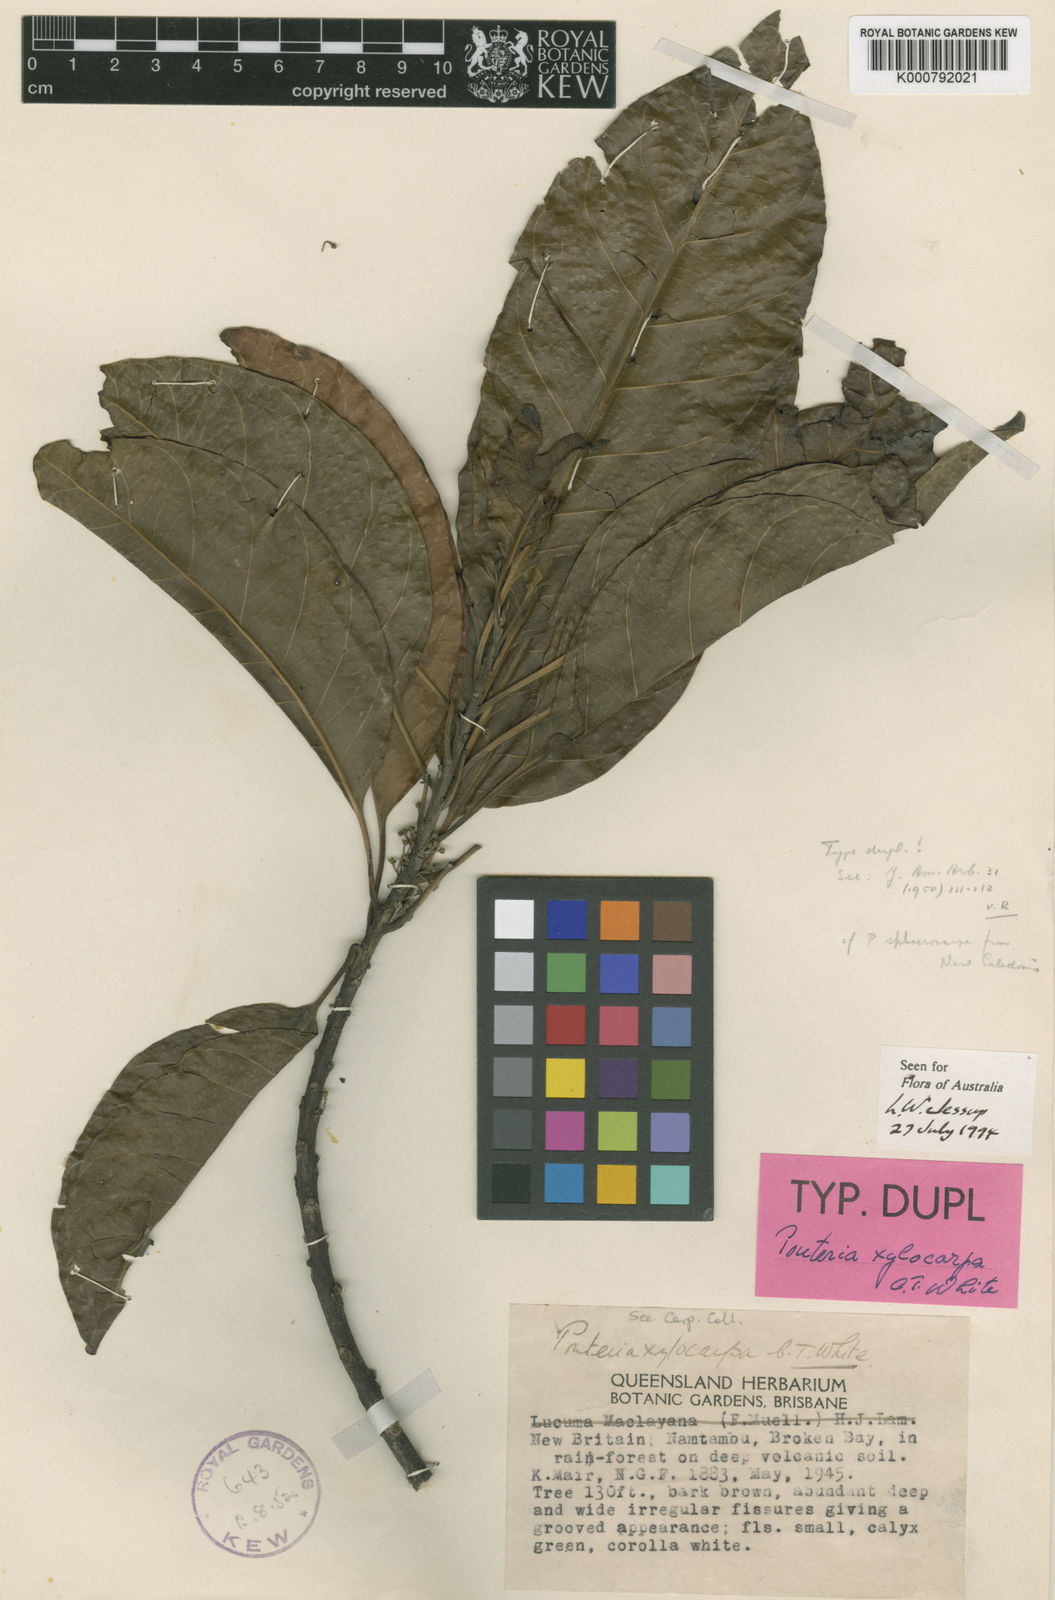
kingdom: Plantae
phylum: Tracheophyta
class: Magnoliopsida
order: Ericales
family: Sapotaceae
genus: Planchonella
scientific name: Planchonella xylocarpa
